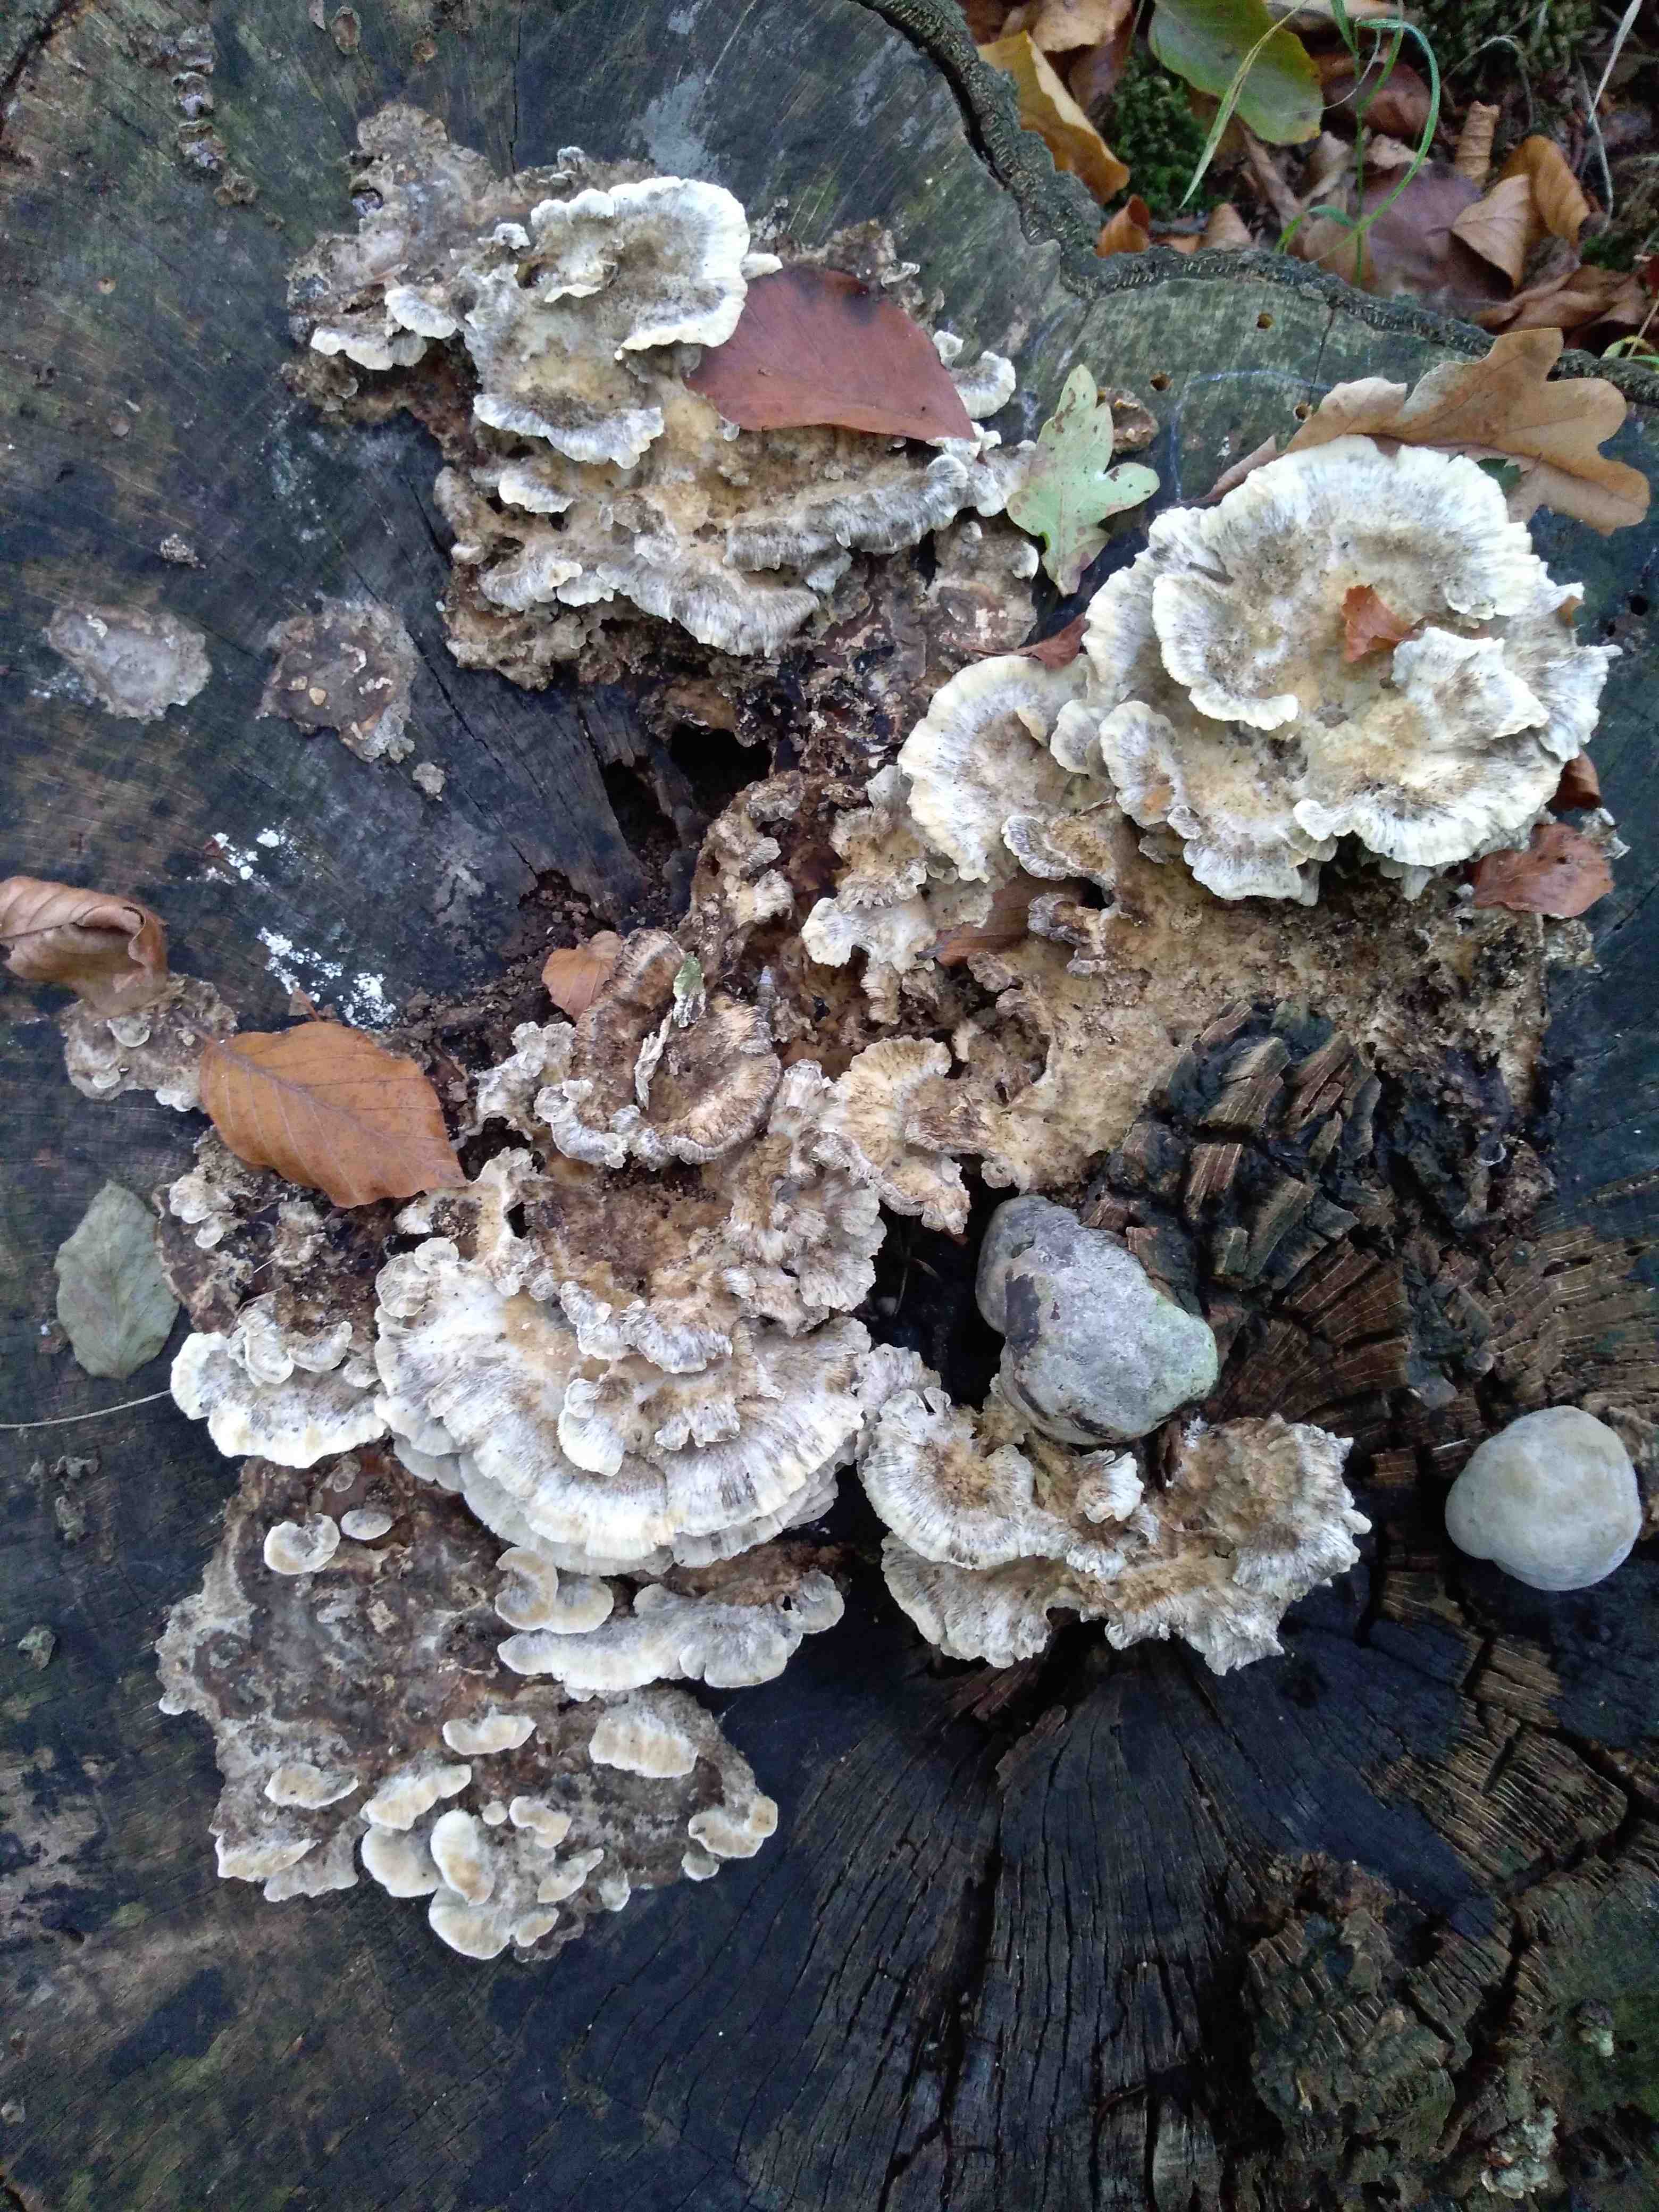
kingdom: Fungi
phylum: Basidiomycota
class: Agaricomycetes
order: Polyporales
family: Phanerochaetaceae
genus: Bjerkandera
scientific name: Bjerkandera adusta
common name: sveden sodporesvamp
